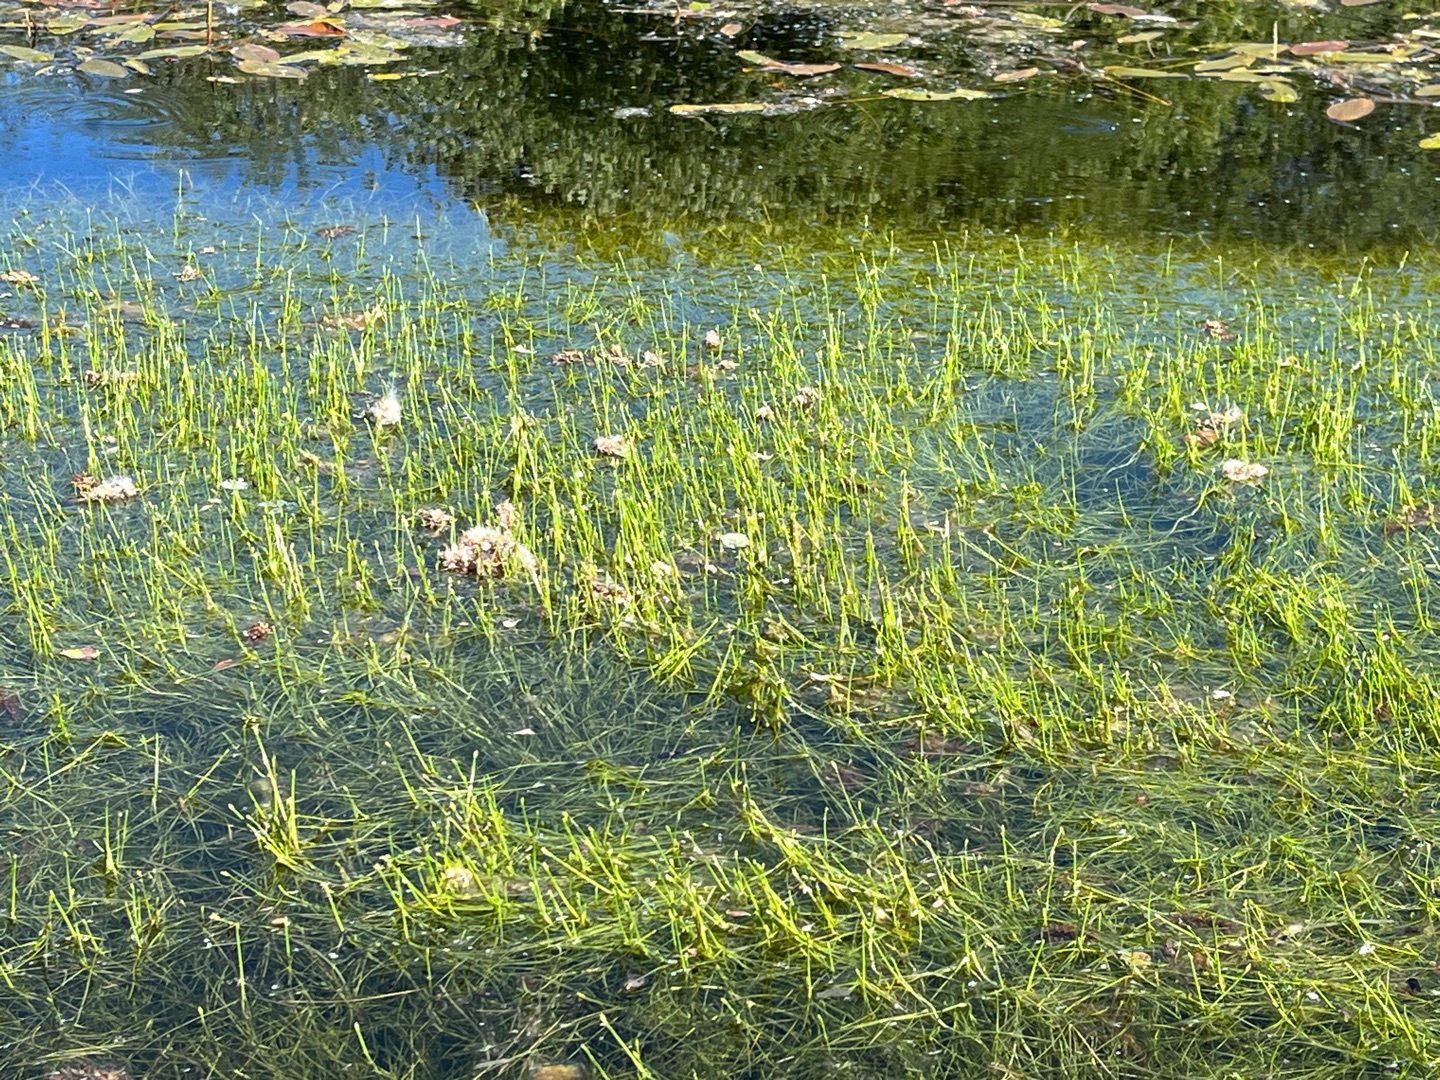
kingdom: Plantae
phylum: Tracheophyta
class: Liliopsida
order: Poales
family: Cyperaceae
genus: Isolepis
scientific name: Isolepis fluitans
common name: Flydende kogleaks
